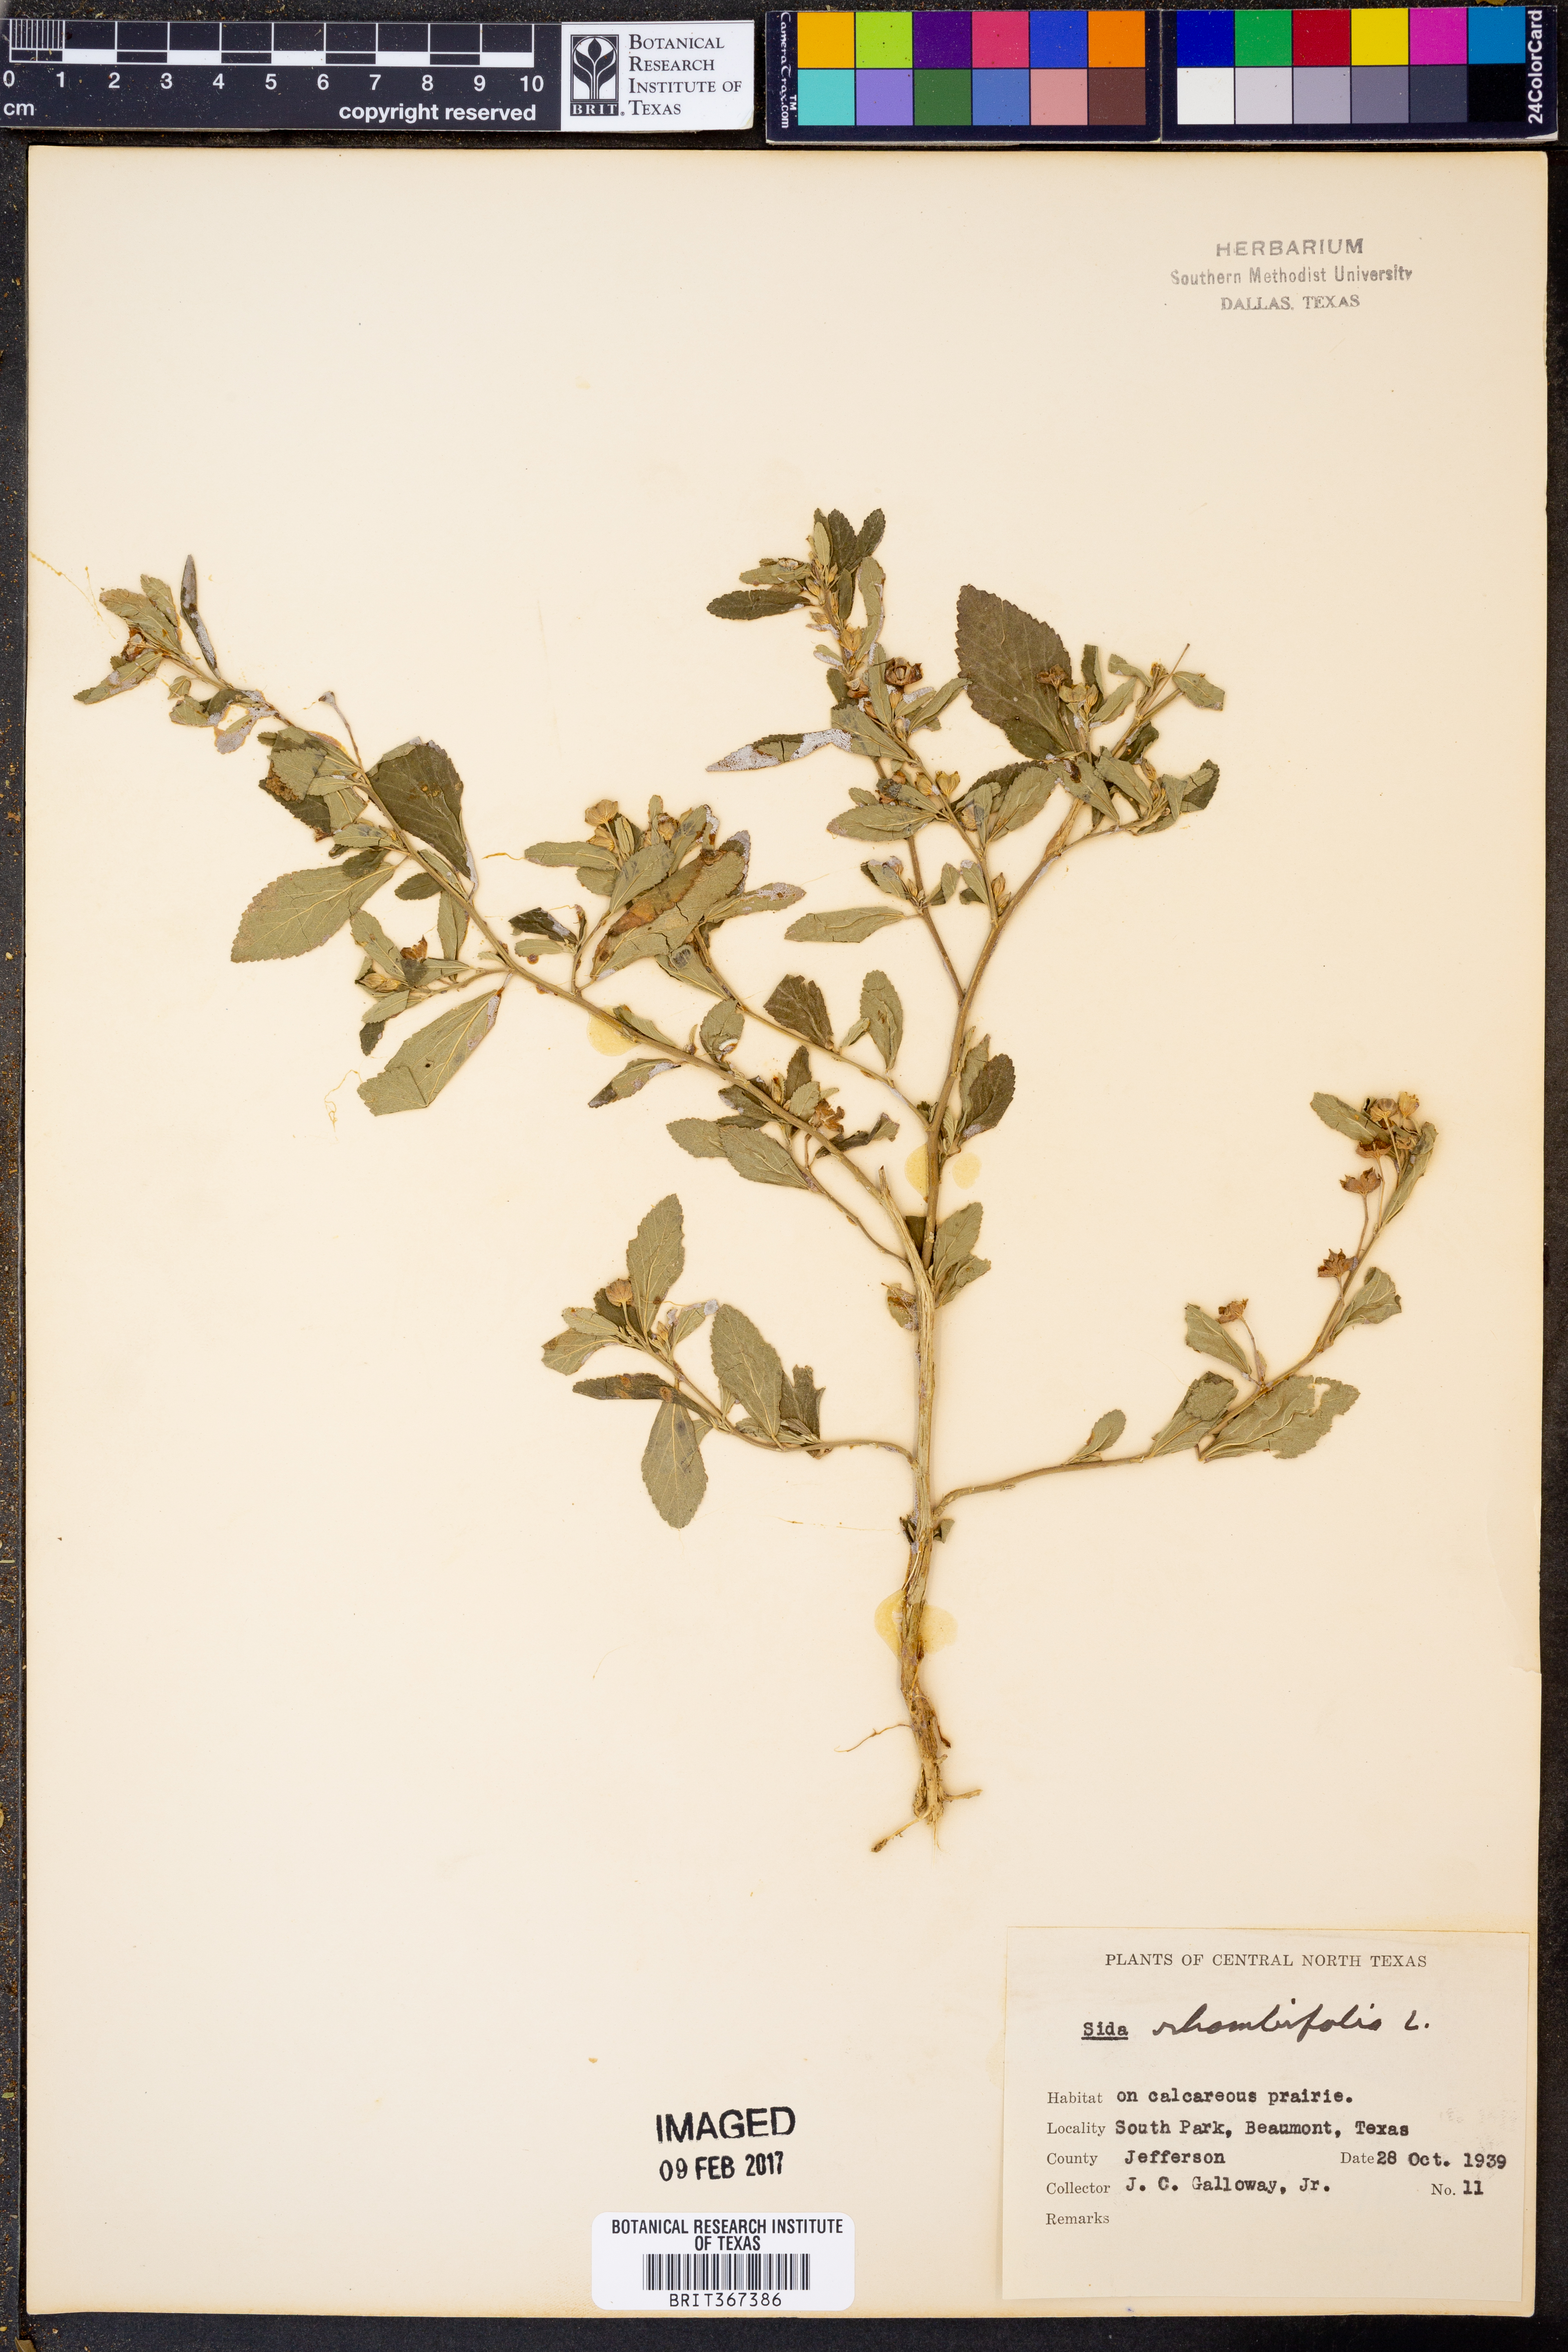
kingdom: Plantae
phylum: Tracheophyta
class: Magnoliopsida
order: Malvales
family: Malvaceae
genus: Sida
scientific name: Sida rhombifolia
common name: Queensland-hemp
